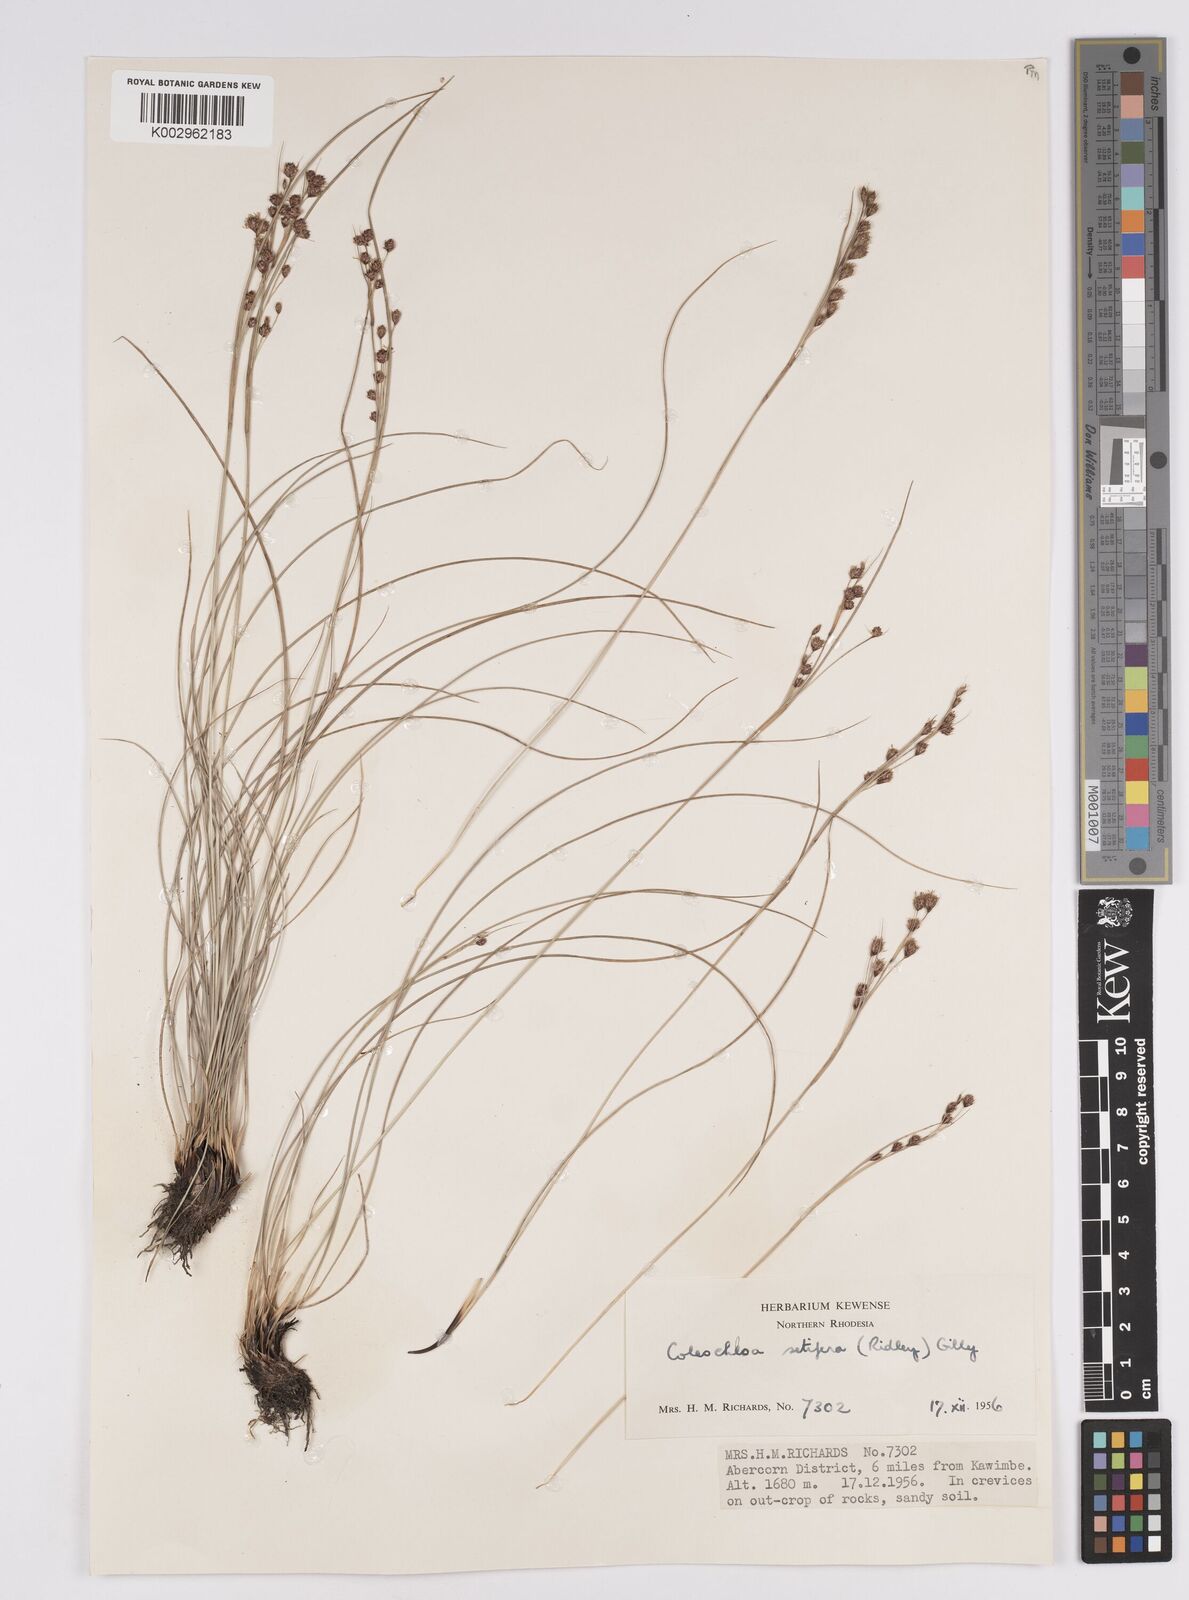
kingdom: Plantae
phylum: Tracheophyta
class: Liliopsida
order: Poales
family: Cyperaceae
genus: Coleochloa
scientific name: Coleochloa setifera
